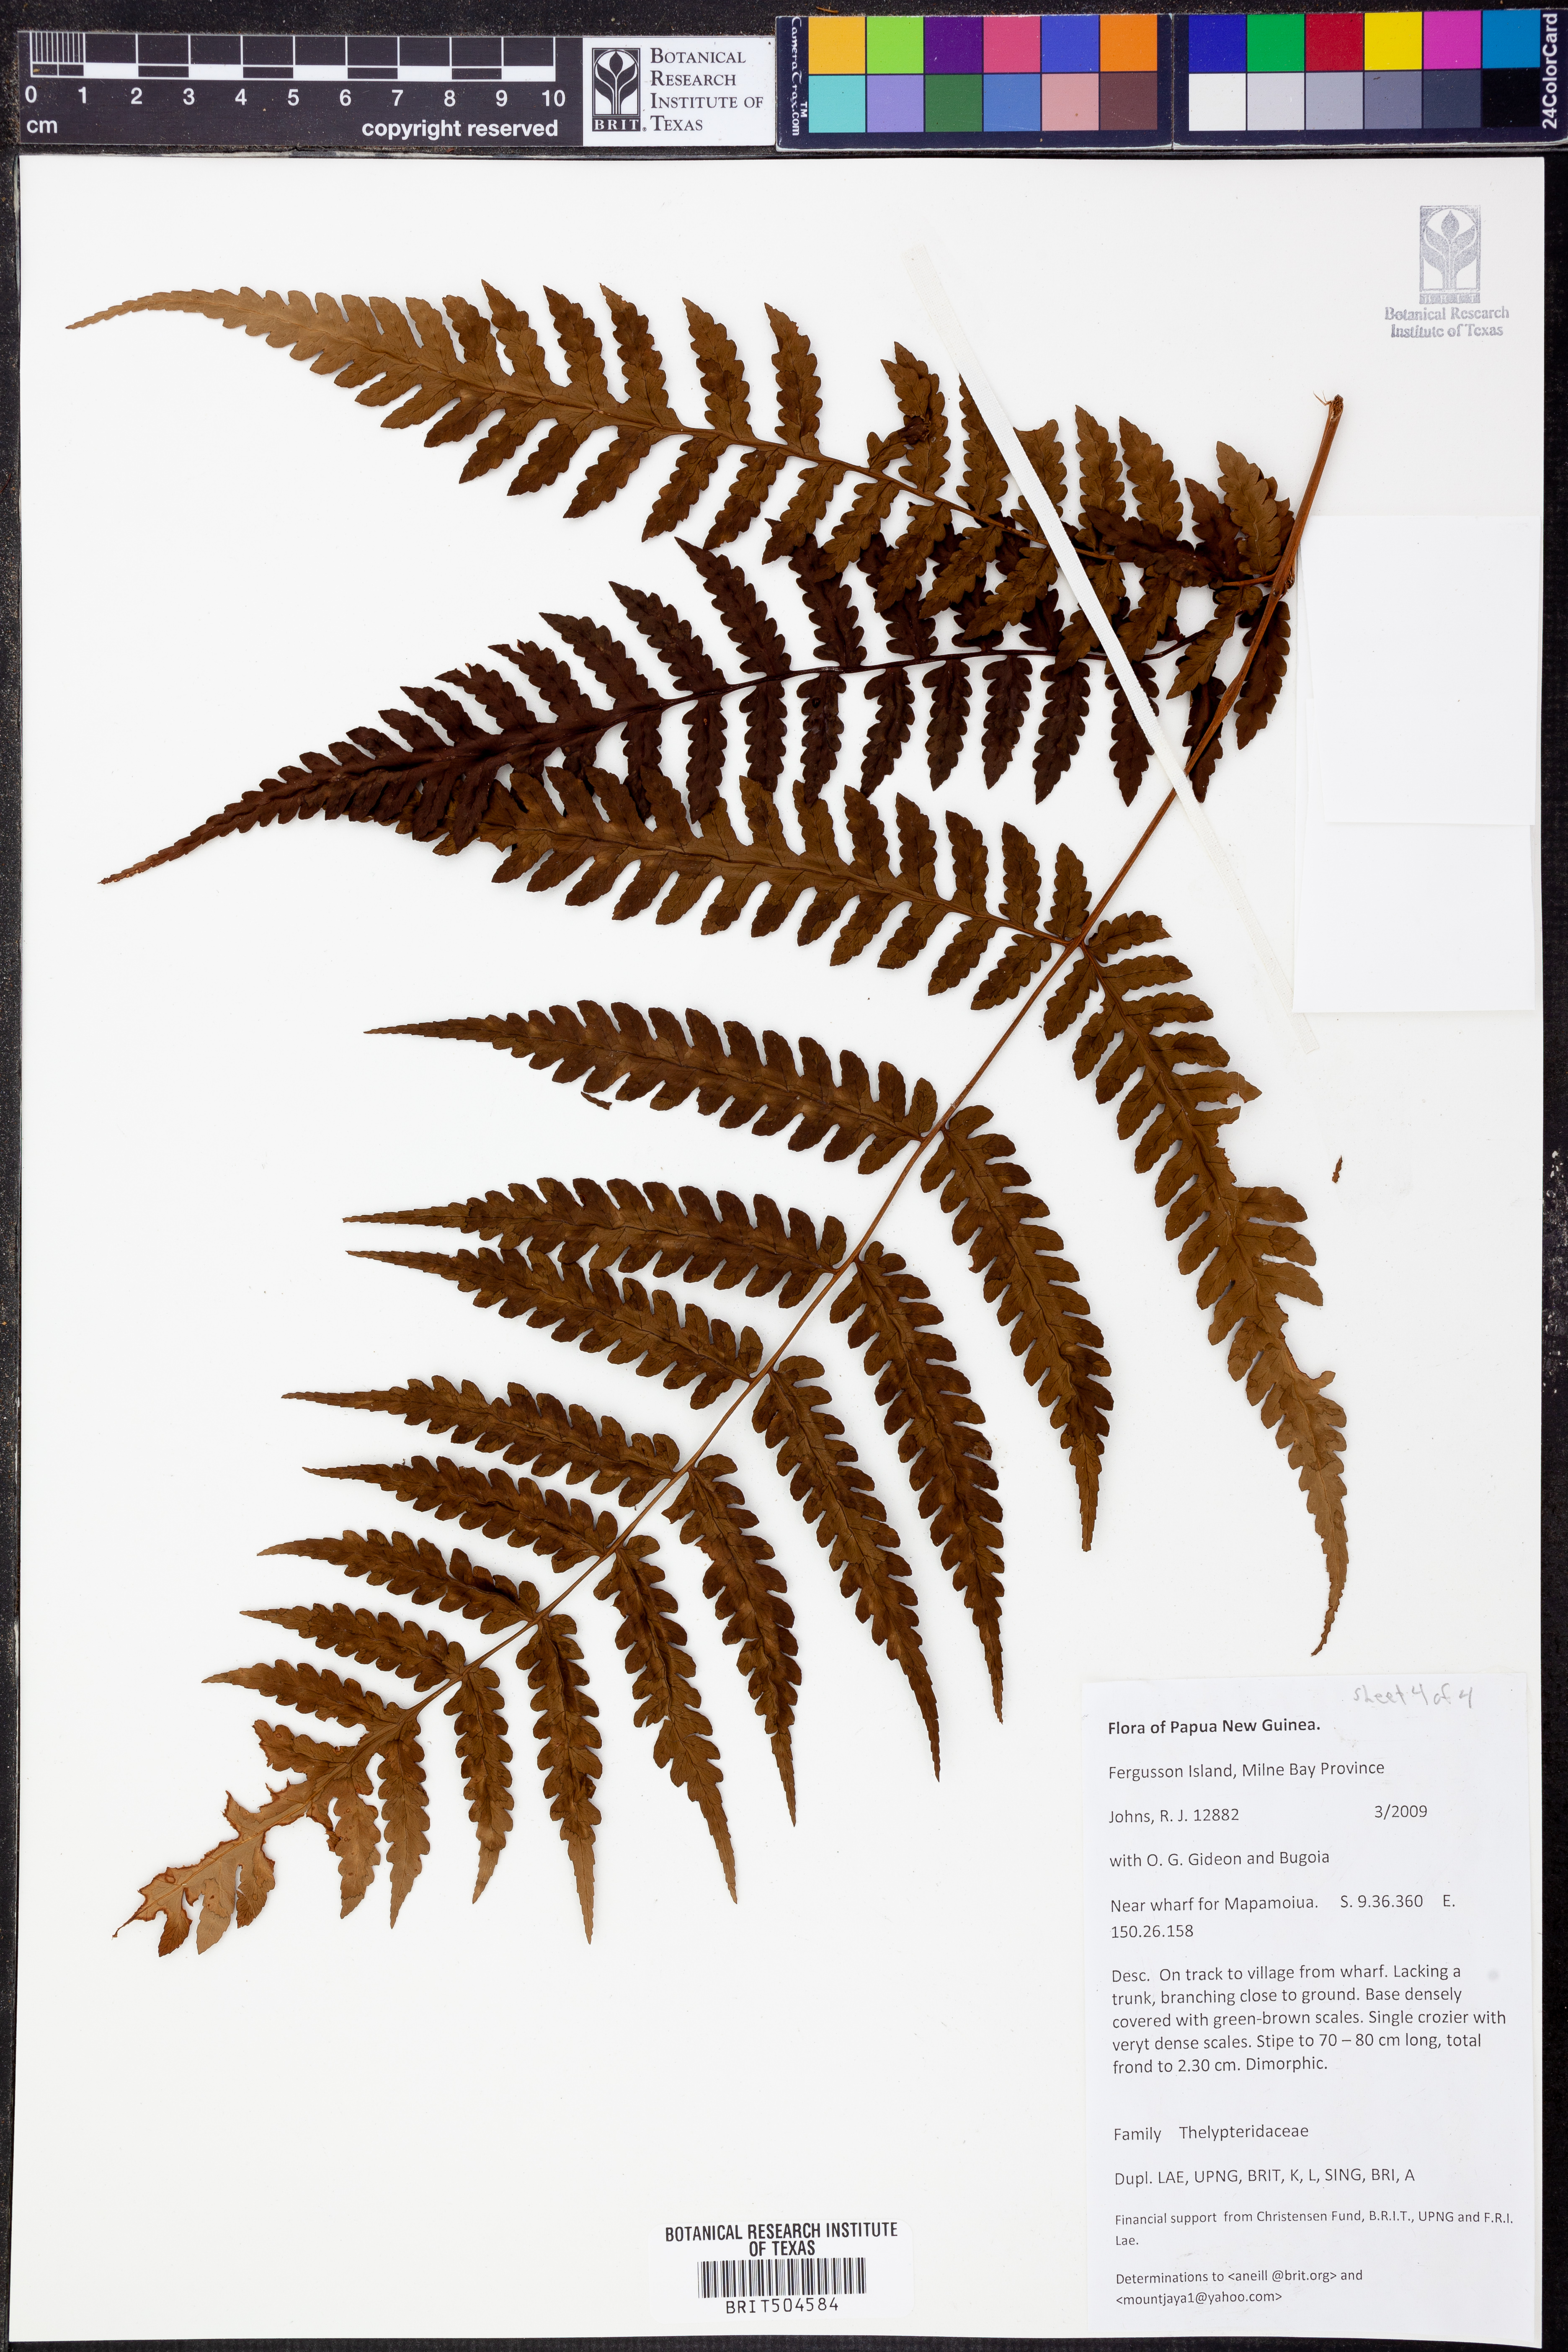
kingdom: Plantae
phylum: Tracheophyta
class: Polypodiopsida
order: Polypodiales
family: Thelypteridaceae
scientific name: Thelypteridaceae
